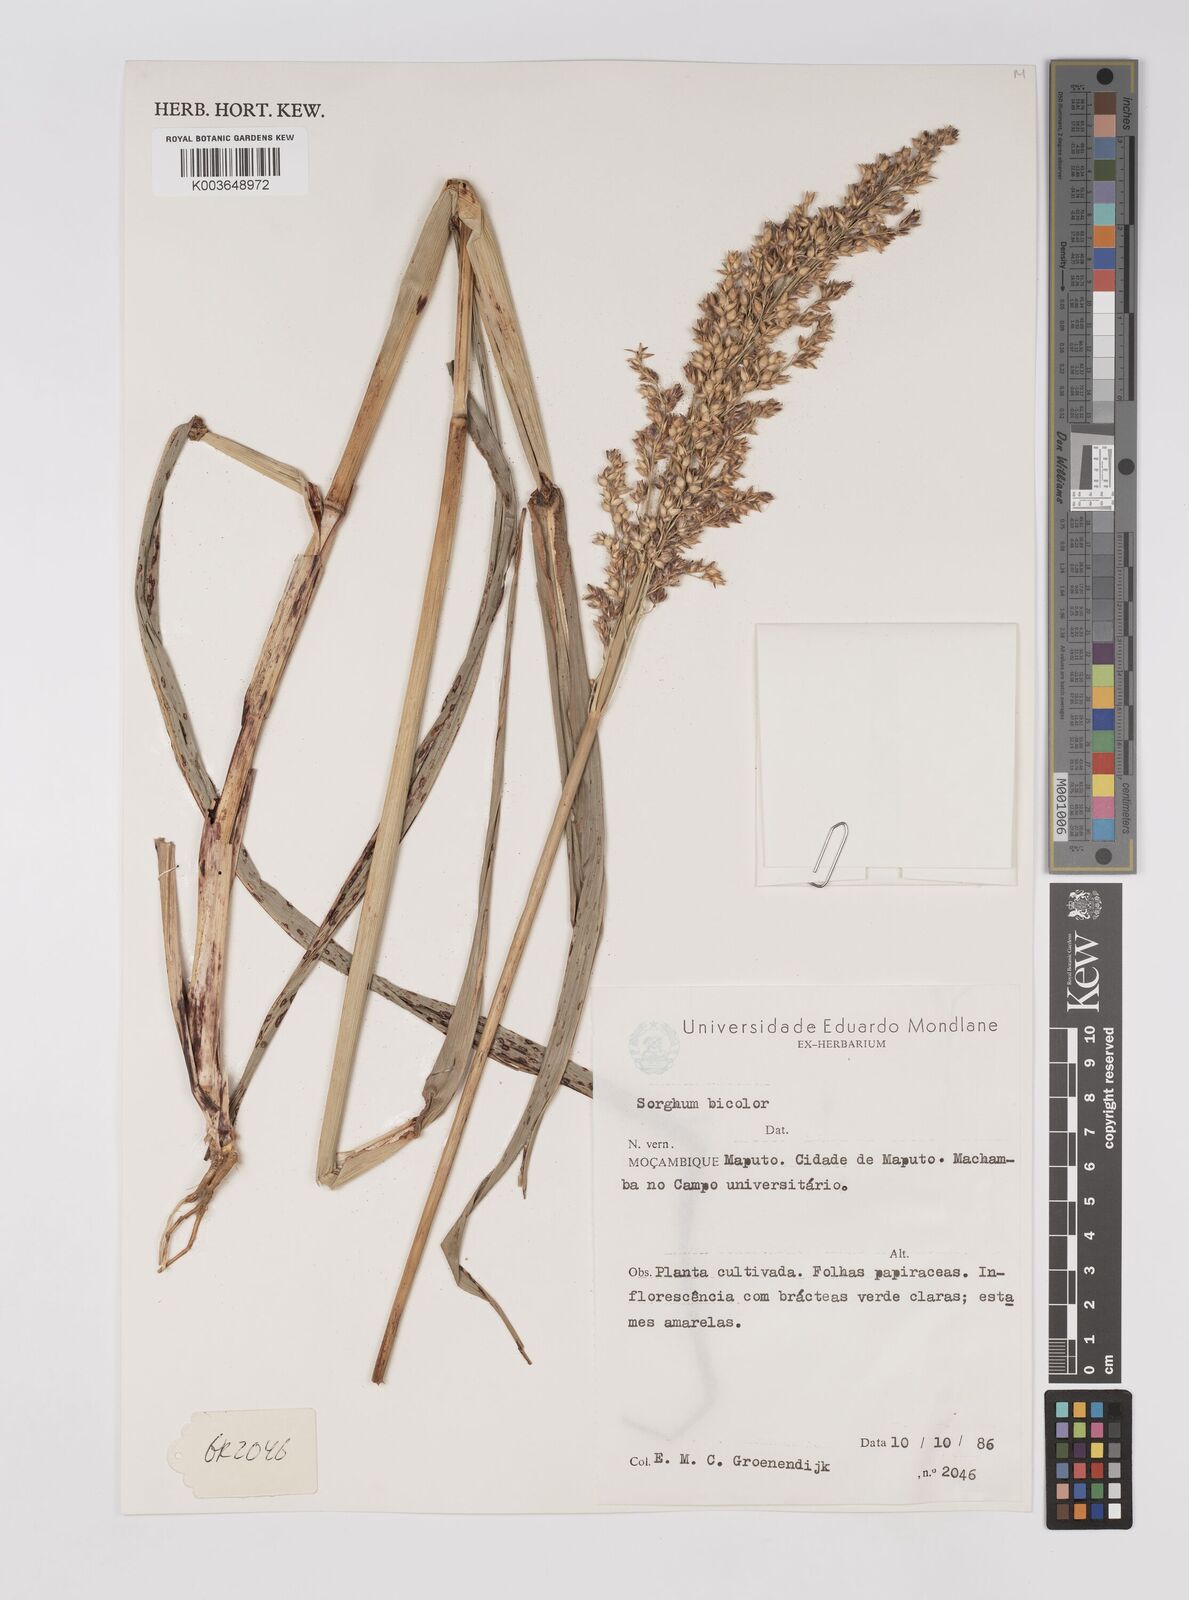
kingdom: Plantae
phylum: Tracheophyta
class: Liliopsida
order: Poales
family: Poaceae
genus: Hyparrhenia
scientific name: Hyparrhenia dichroa
